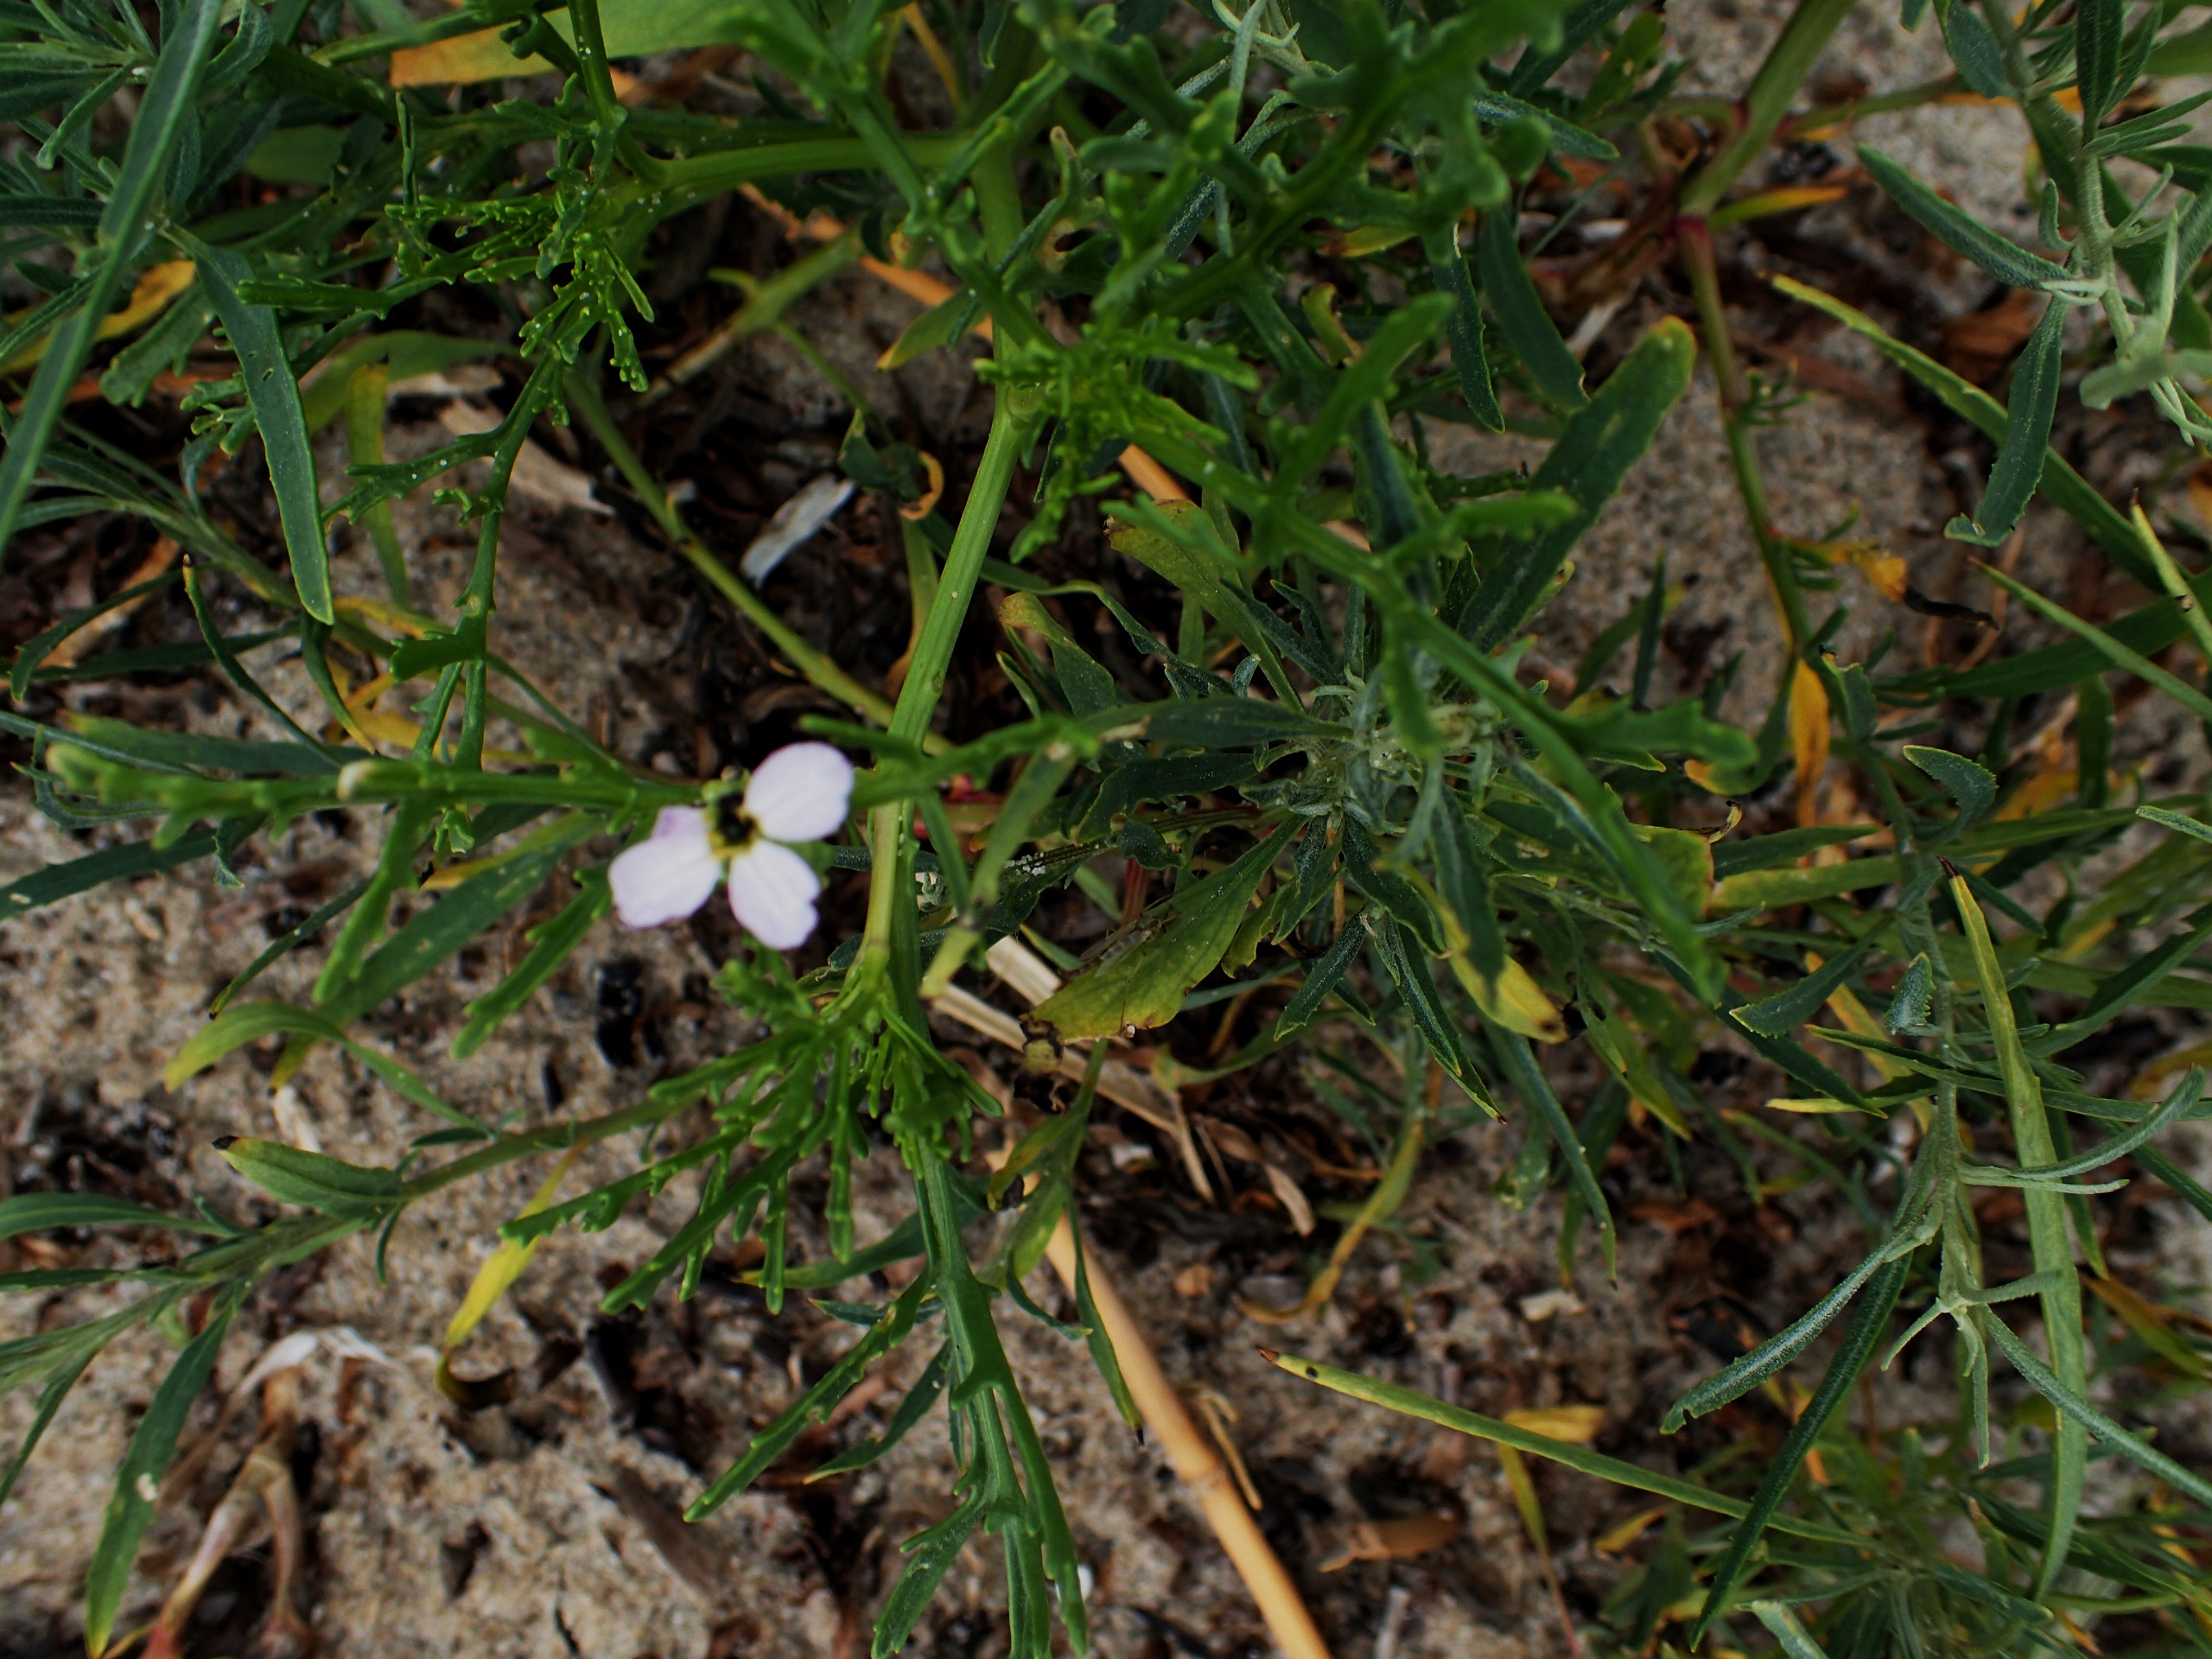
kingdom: Plantae
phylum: Tracheophyta
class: Magnoliopsida
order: Brassicales
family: Brassicaceae
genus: Cakile
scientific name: Cakile maritima
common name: Østersø-strandsennep
